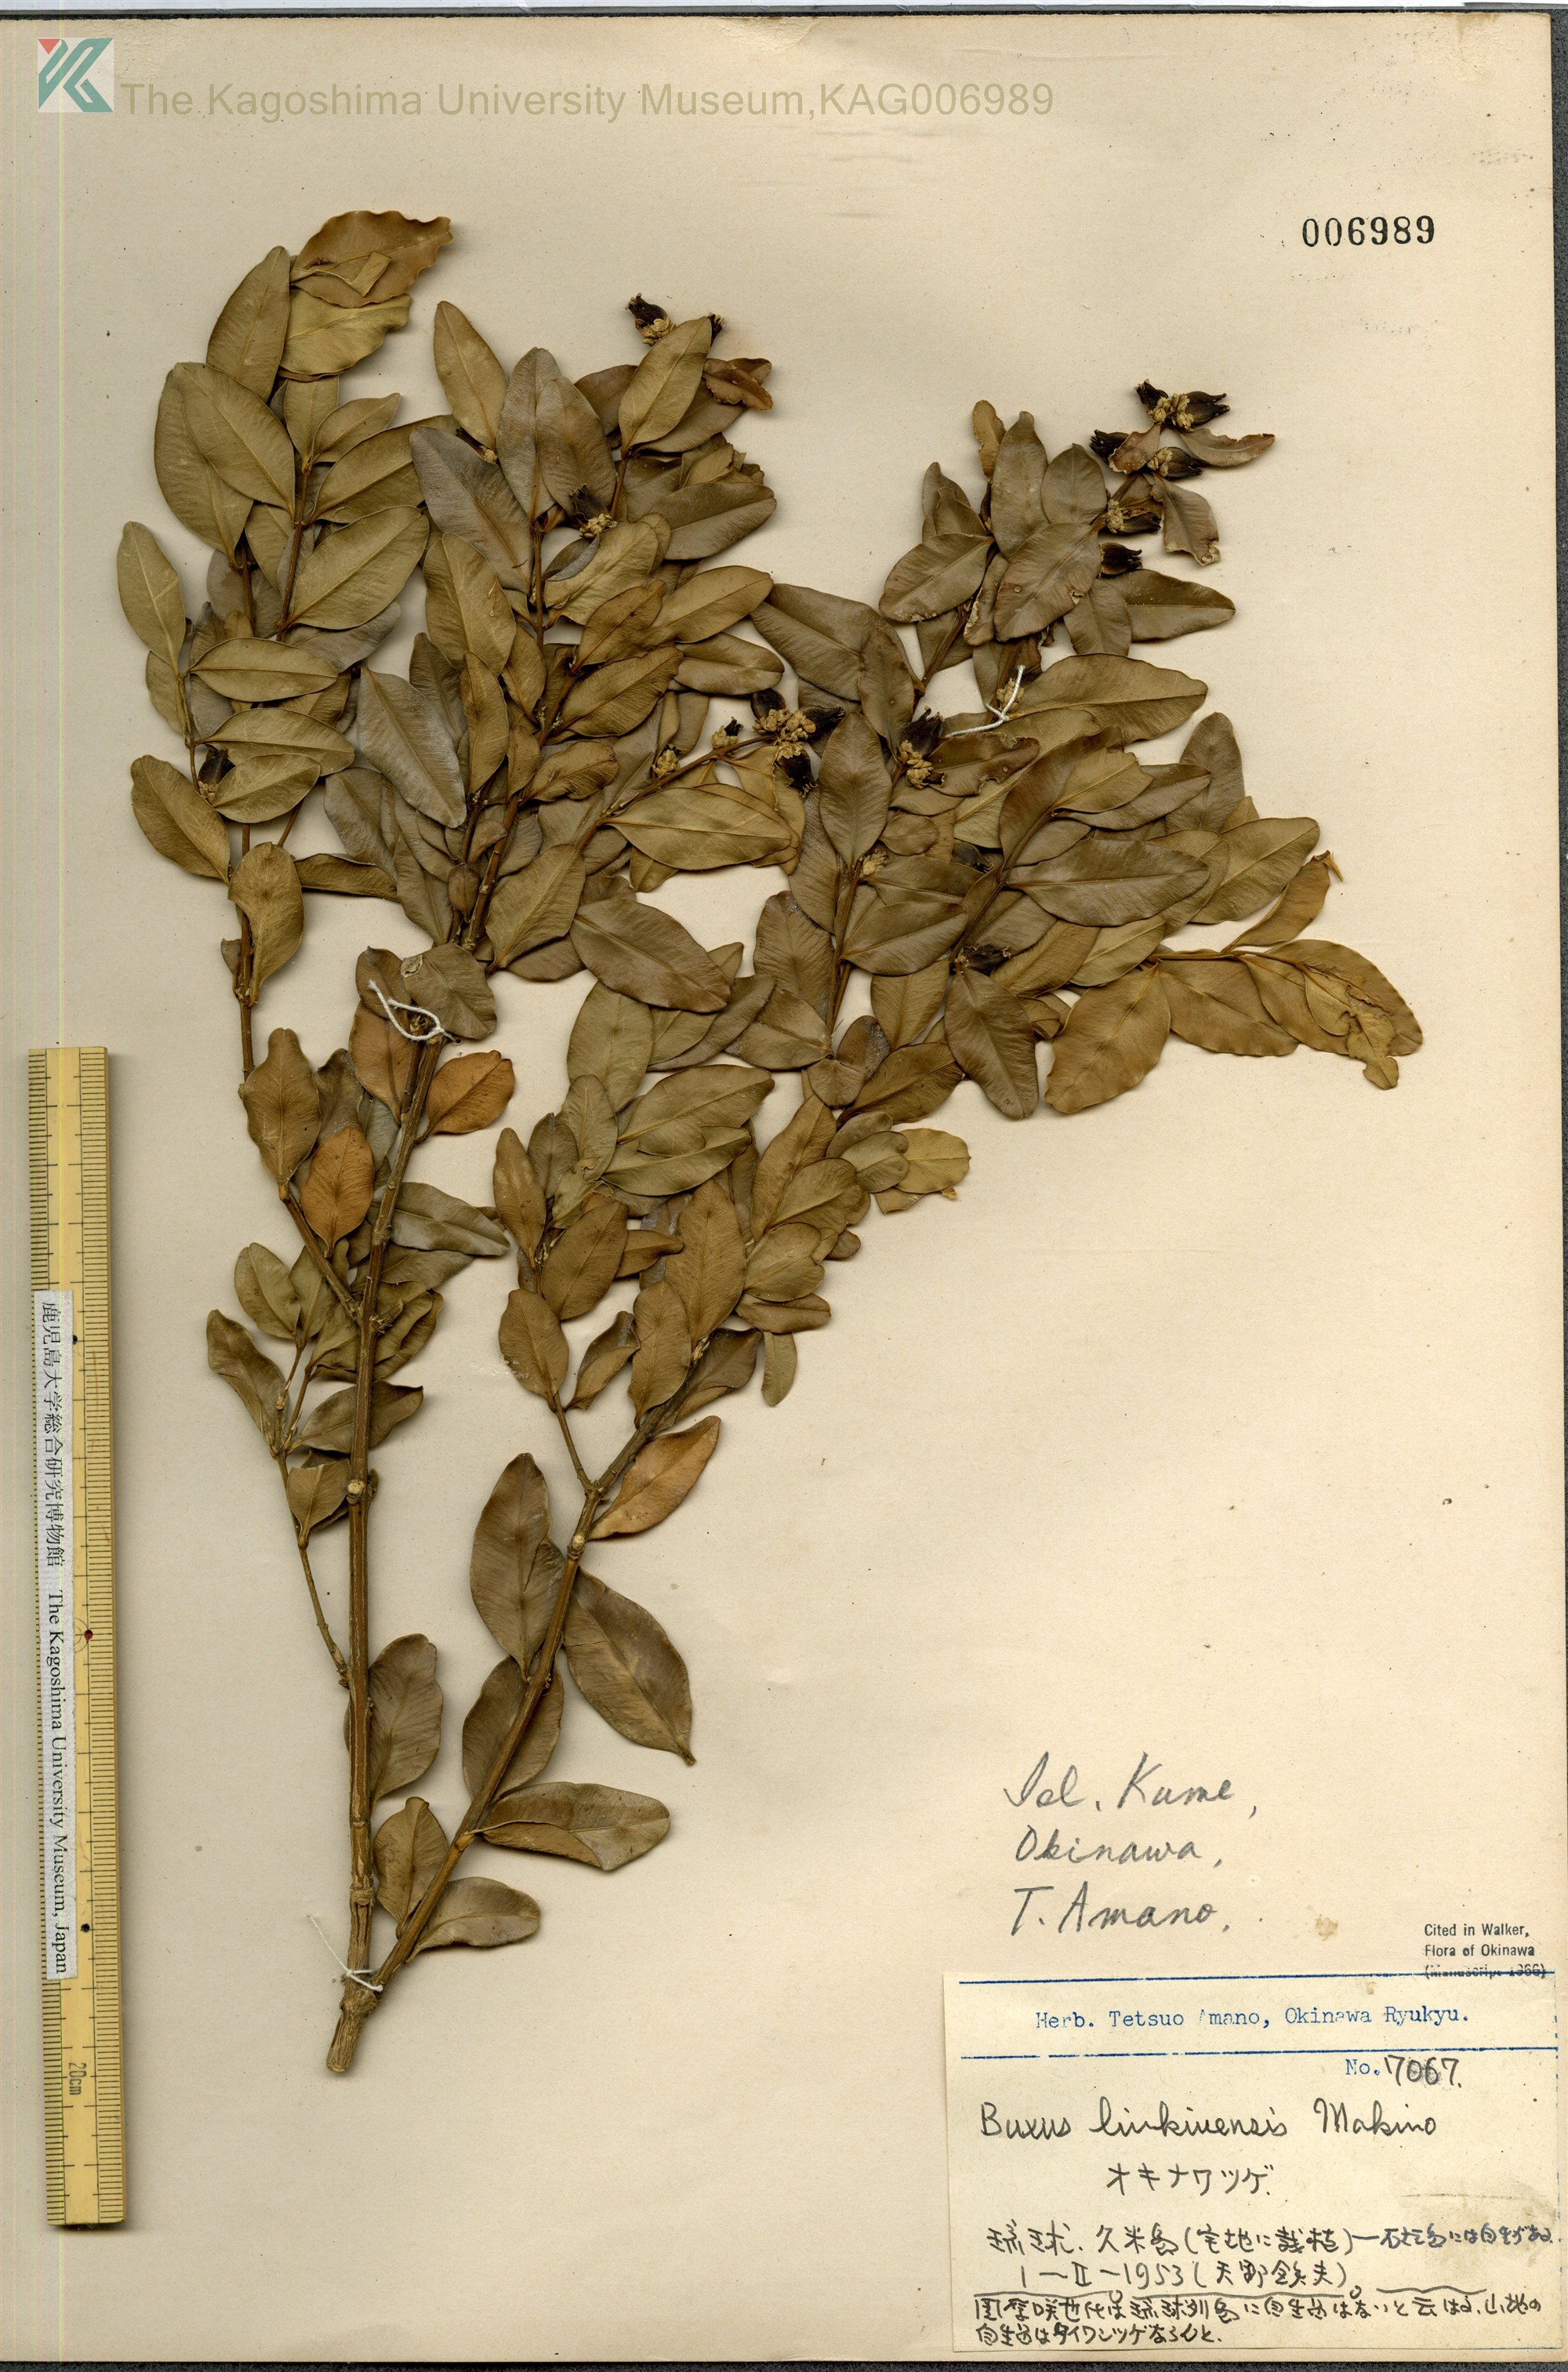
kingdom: Plantae
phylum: Tracheophyta
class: Magnoliopsida
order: Buxales
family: Buxaceae
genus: Buxus
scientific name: Buxus liukiuensis
